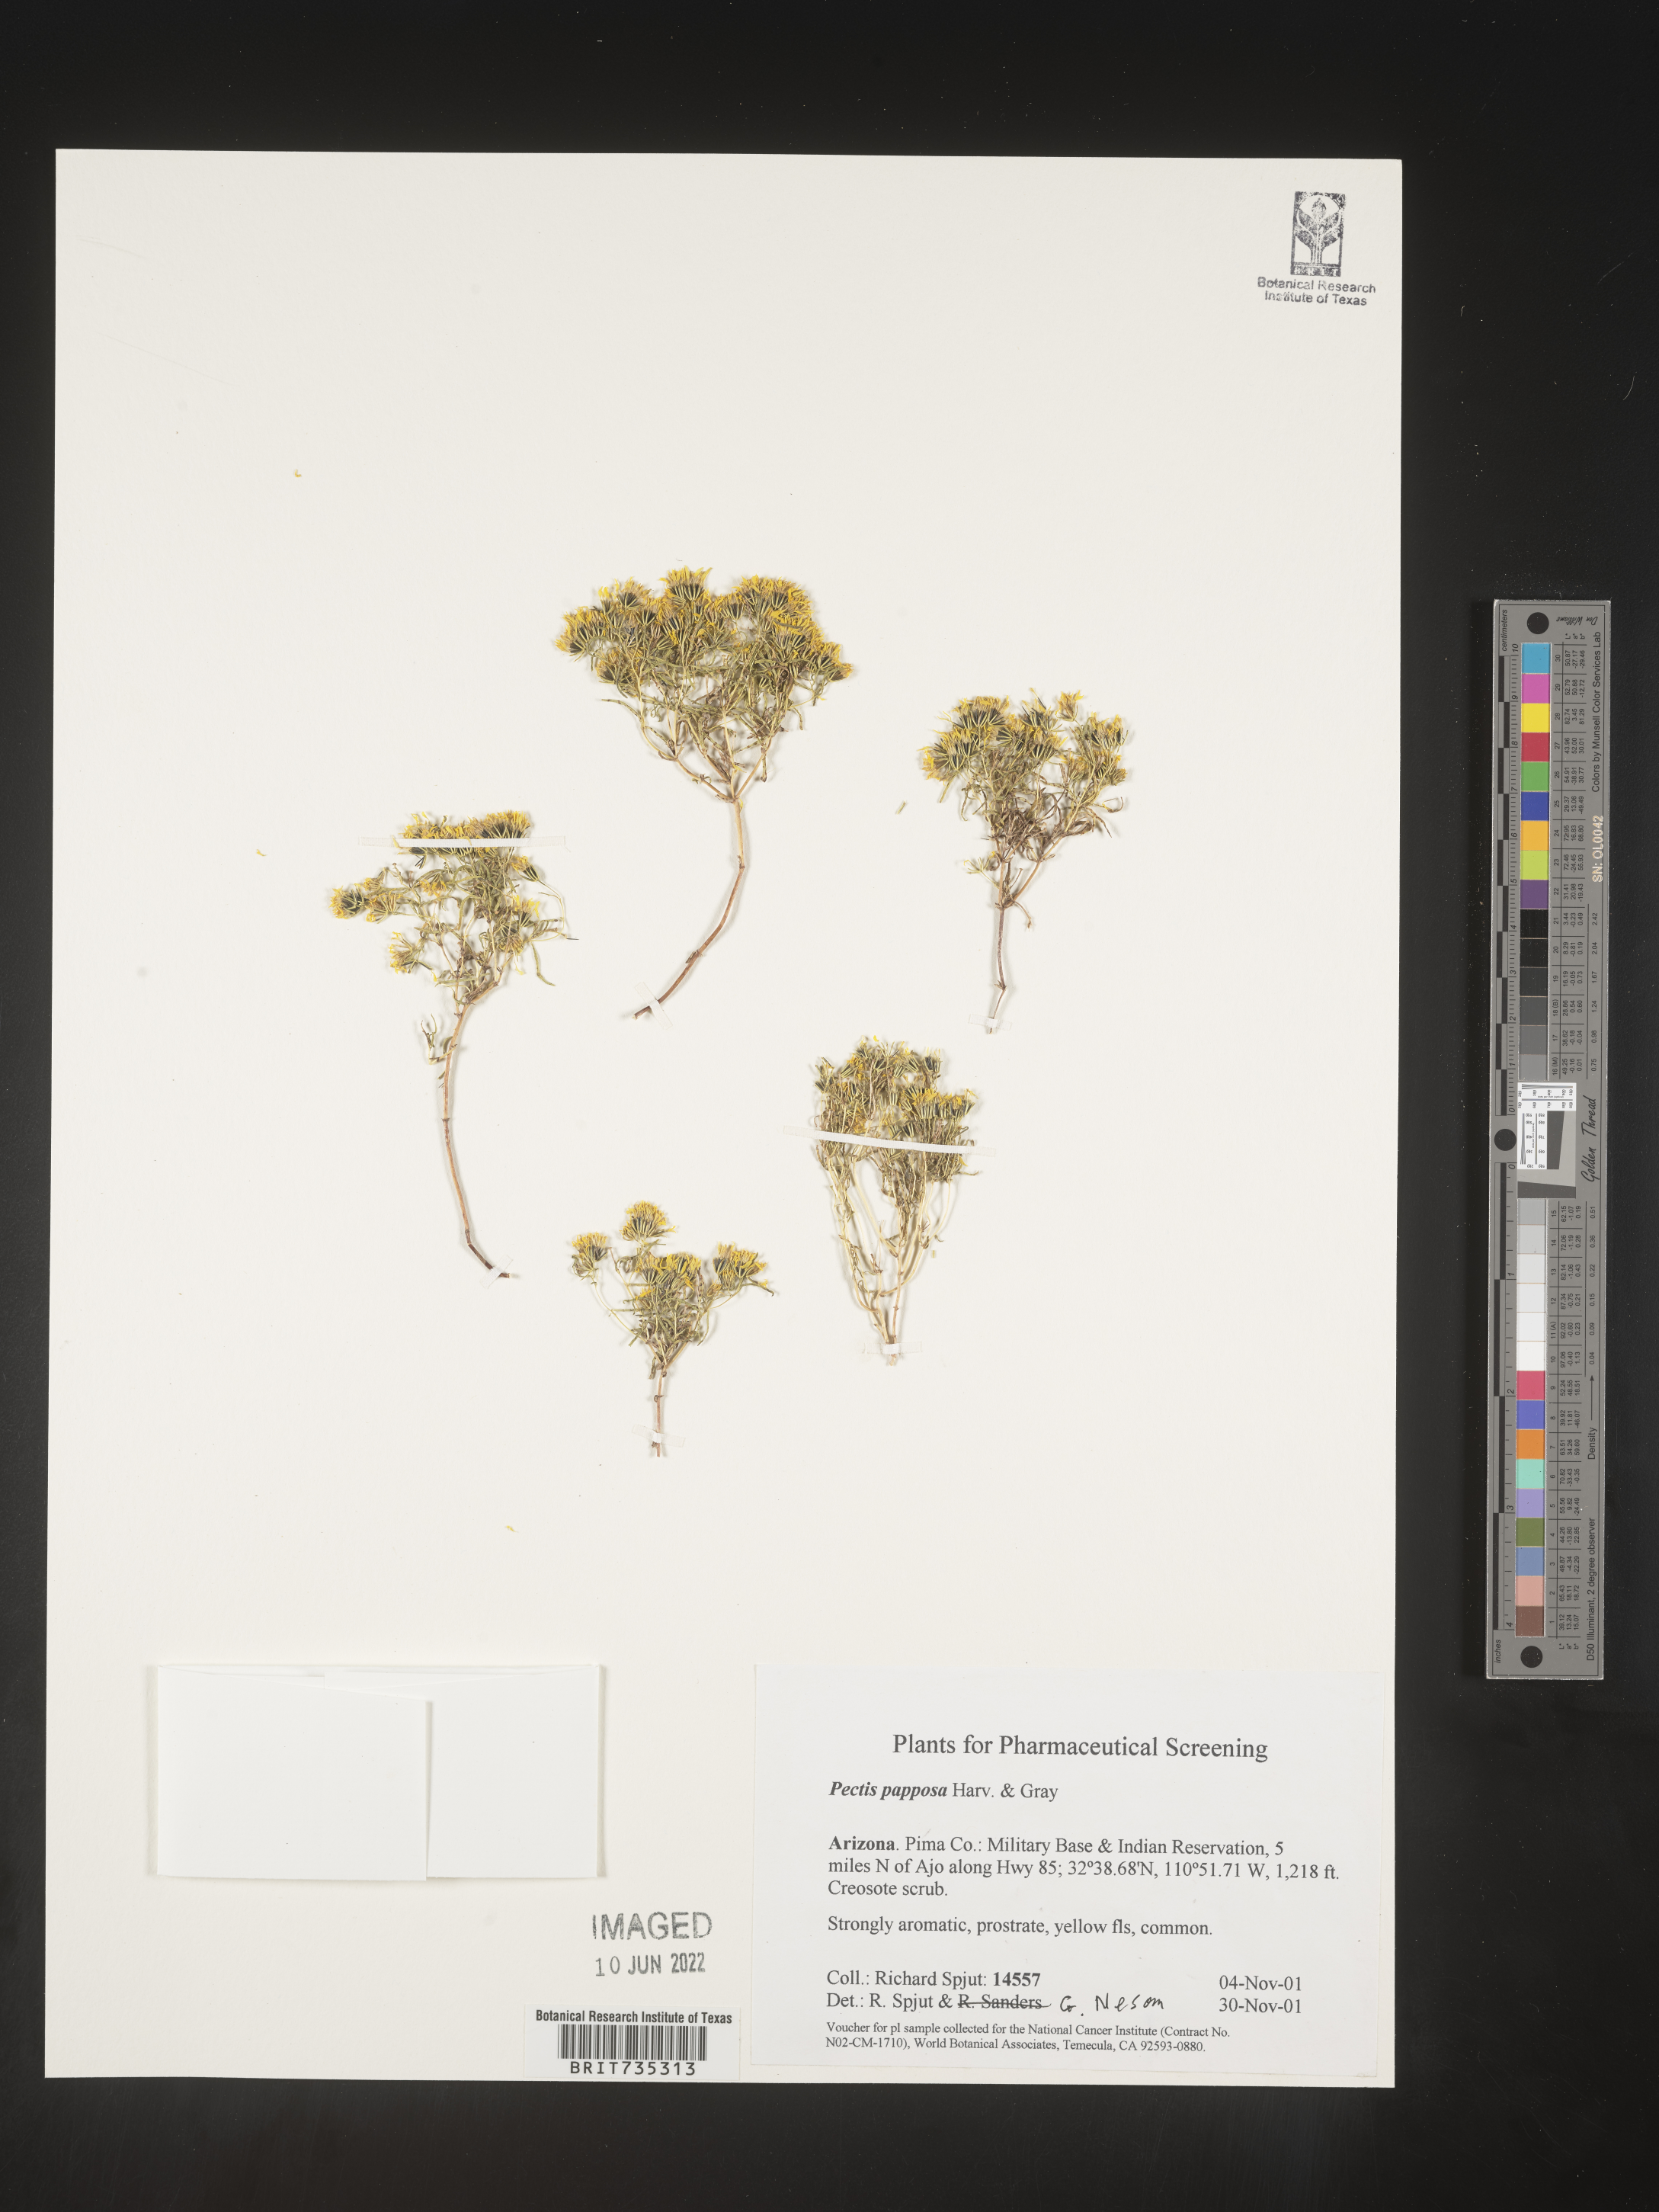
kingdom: Plantae
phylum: Tracheophyta
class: Magnoliopsida
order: Asterales
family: Asteraceae
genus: Pectis
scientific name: Pectis papposa
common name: Many-bristle chinchweed
